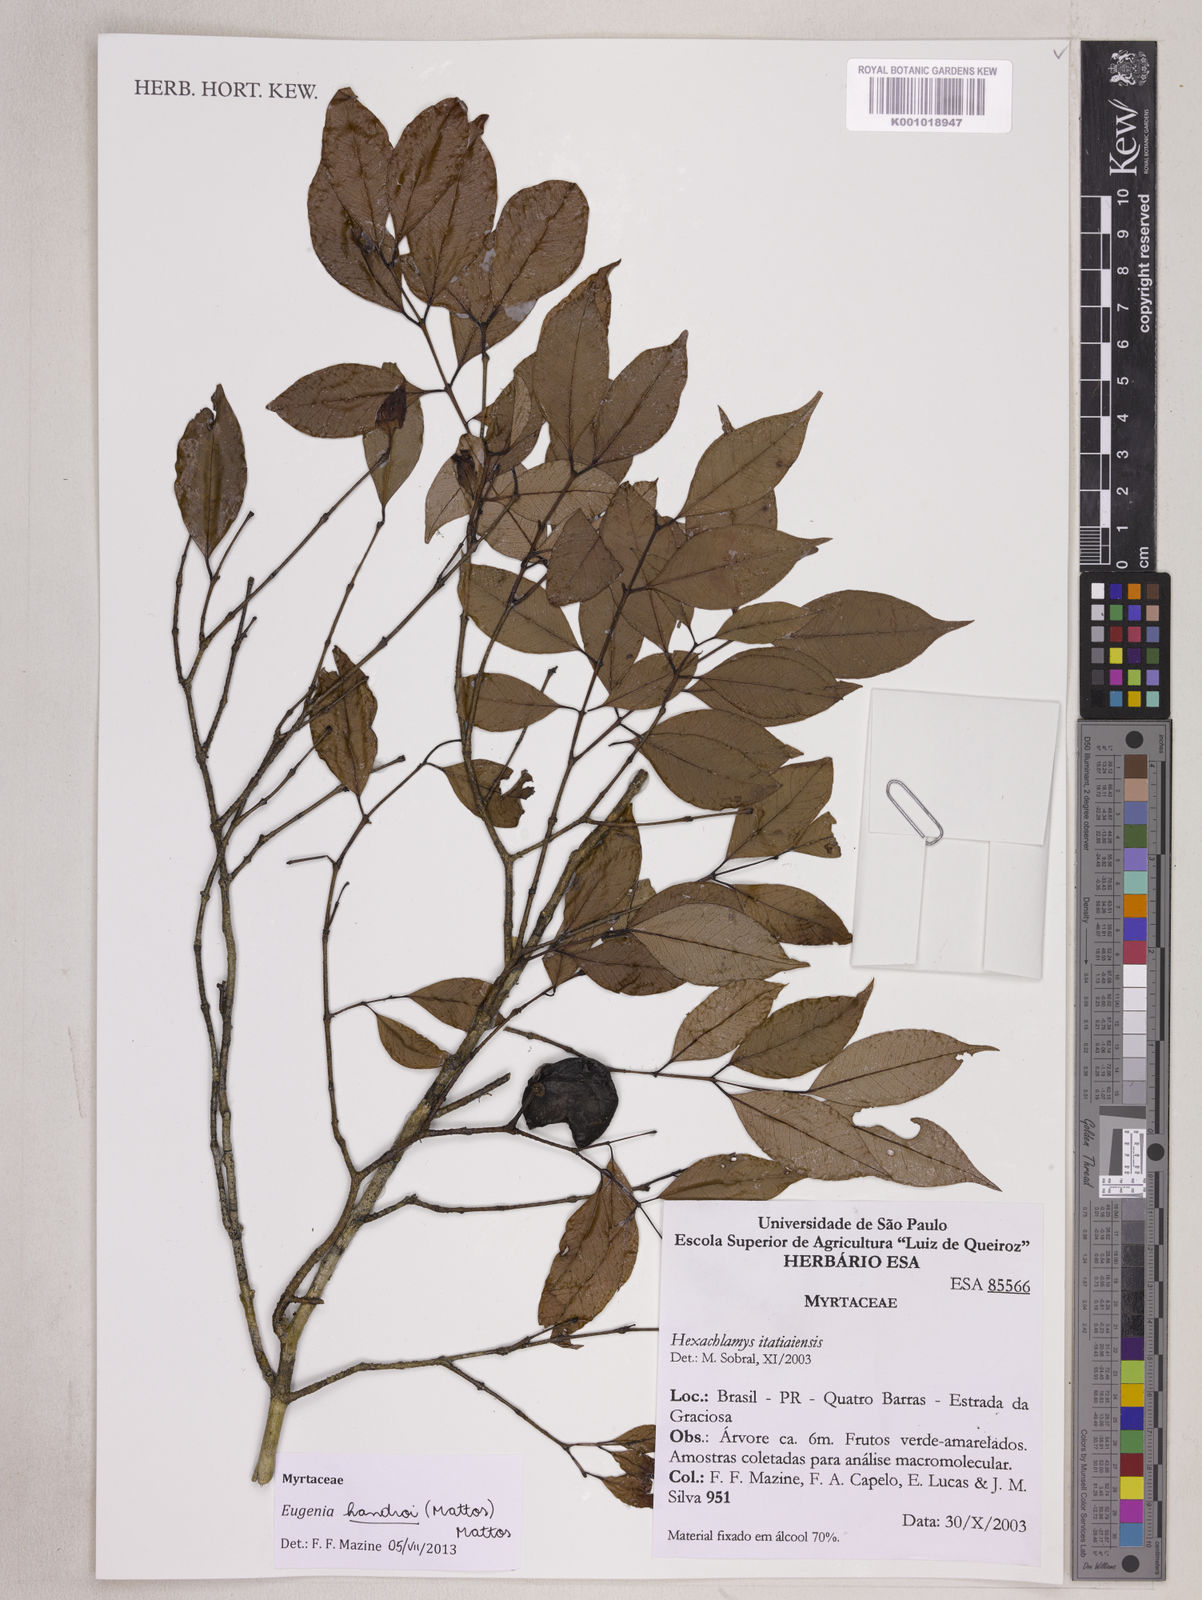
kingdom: Plantae
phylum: Tracheophyta
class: Magnoliopsida
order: Myrtales
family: Myrtaceae
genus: Eugenia
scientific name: Eugenia handroi
